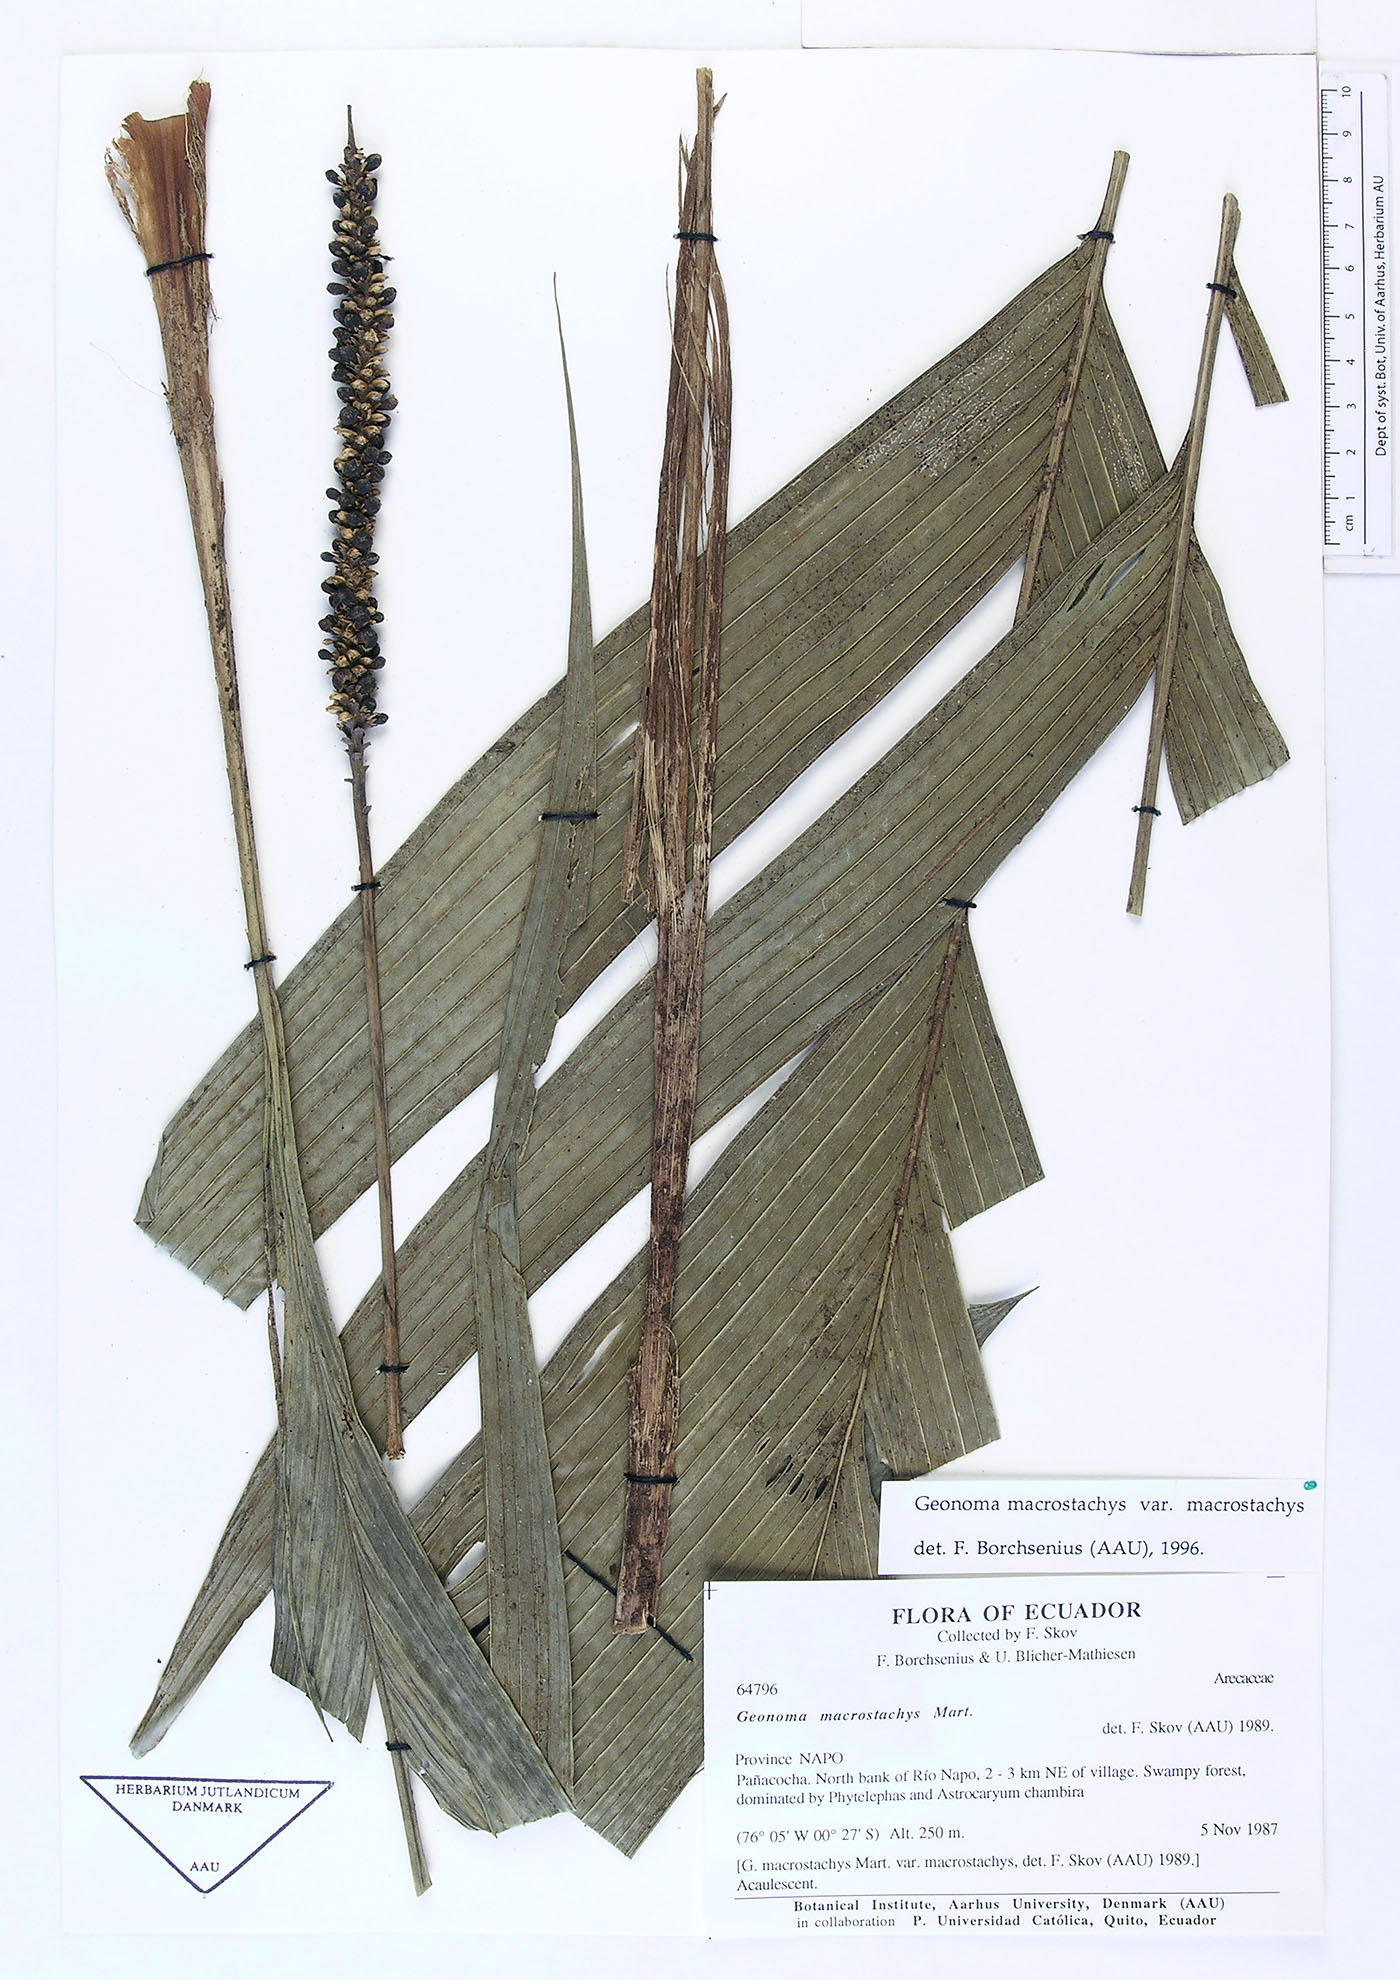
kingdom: Plantae
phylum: Tracheophyta
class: Liliopsida
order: Arecales
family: Arecaceae
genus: Geonoma
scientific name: Geonoma macrostachys
